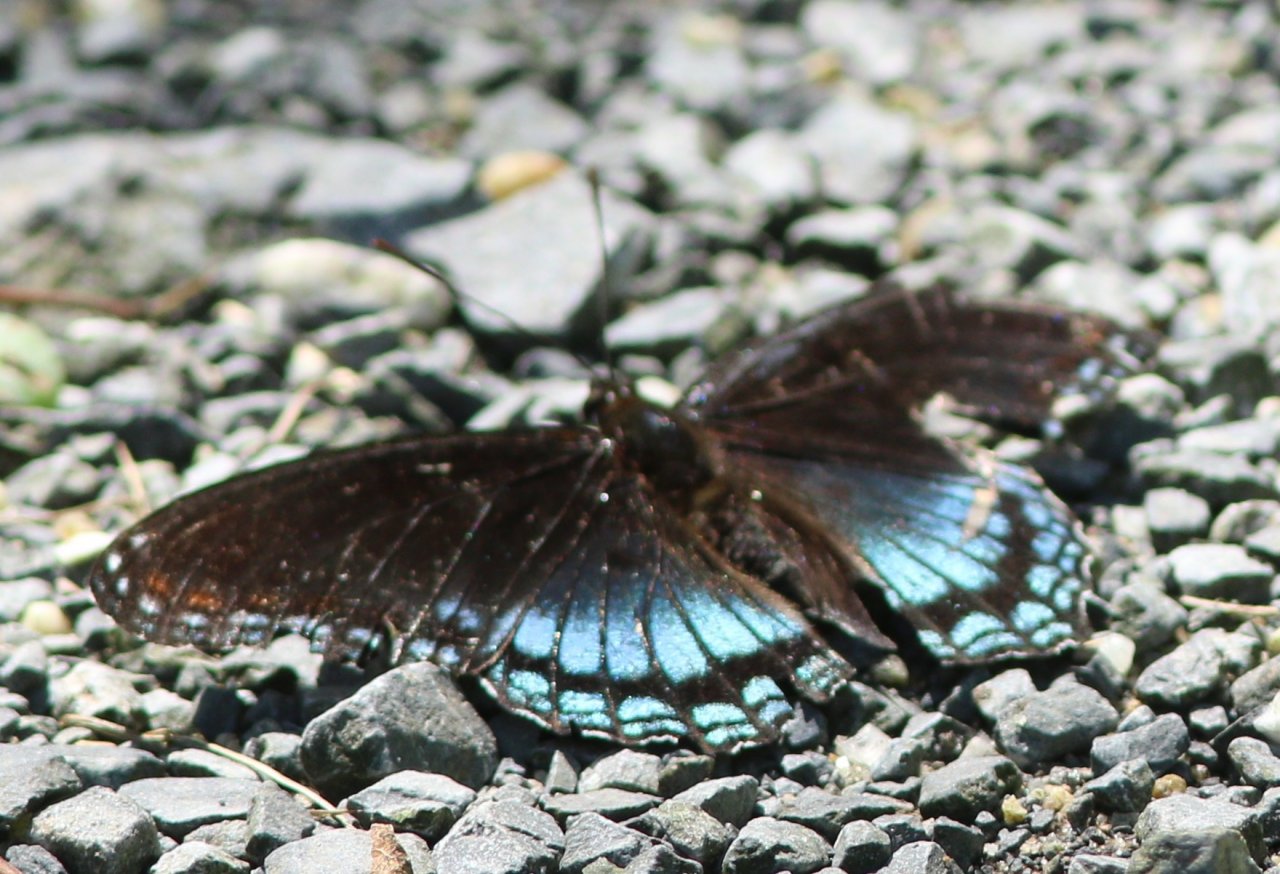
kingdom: Animalia
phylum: Arthropoda
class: Insecta
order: Lepidoptera
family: Nymphalidae
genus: Limenitis
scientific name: Limenitis astyanax
